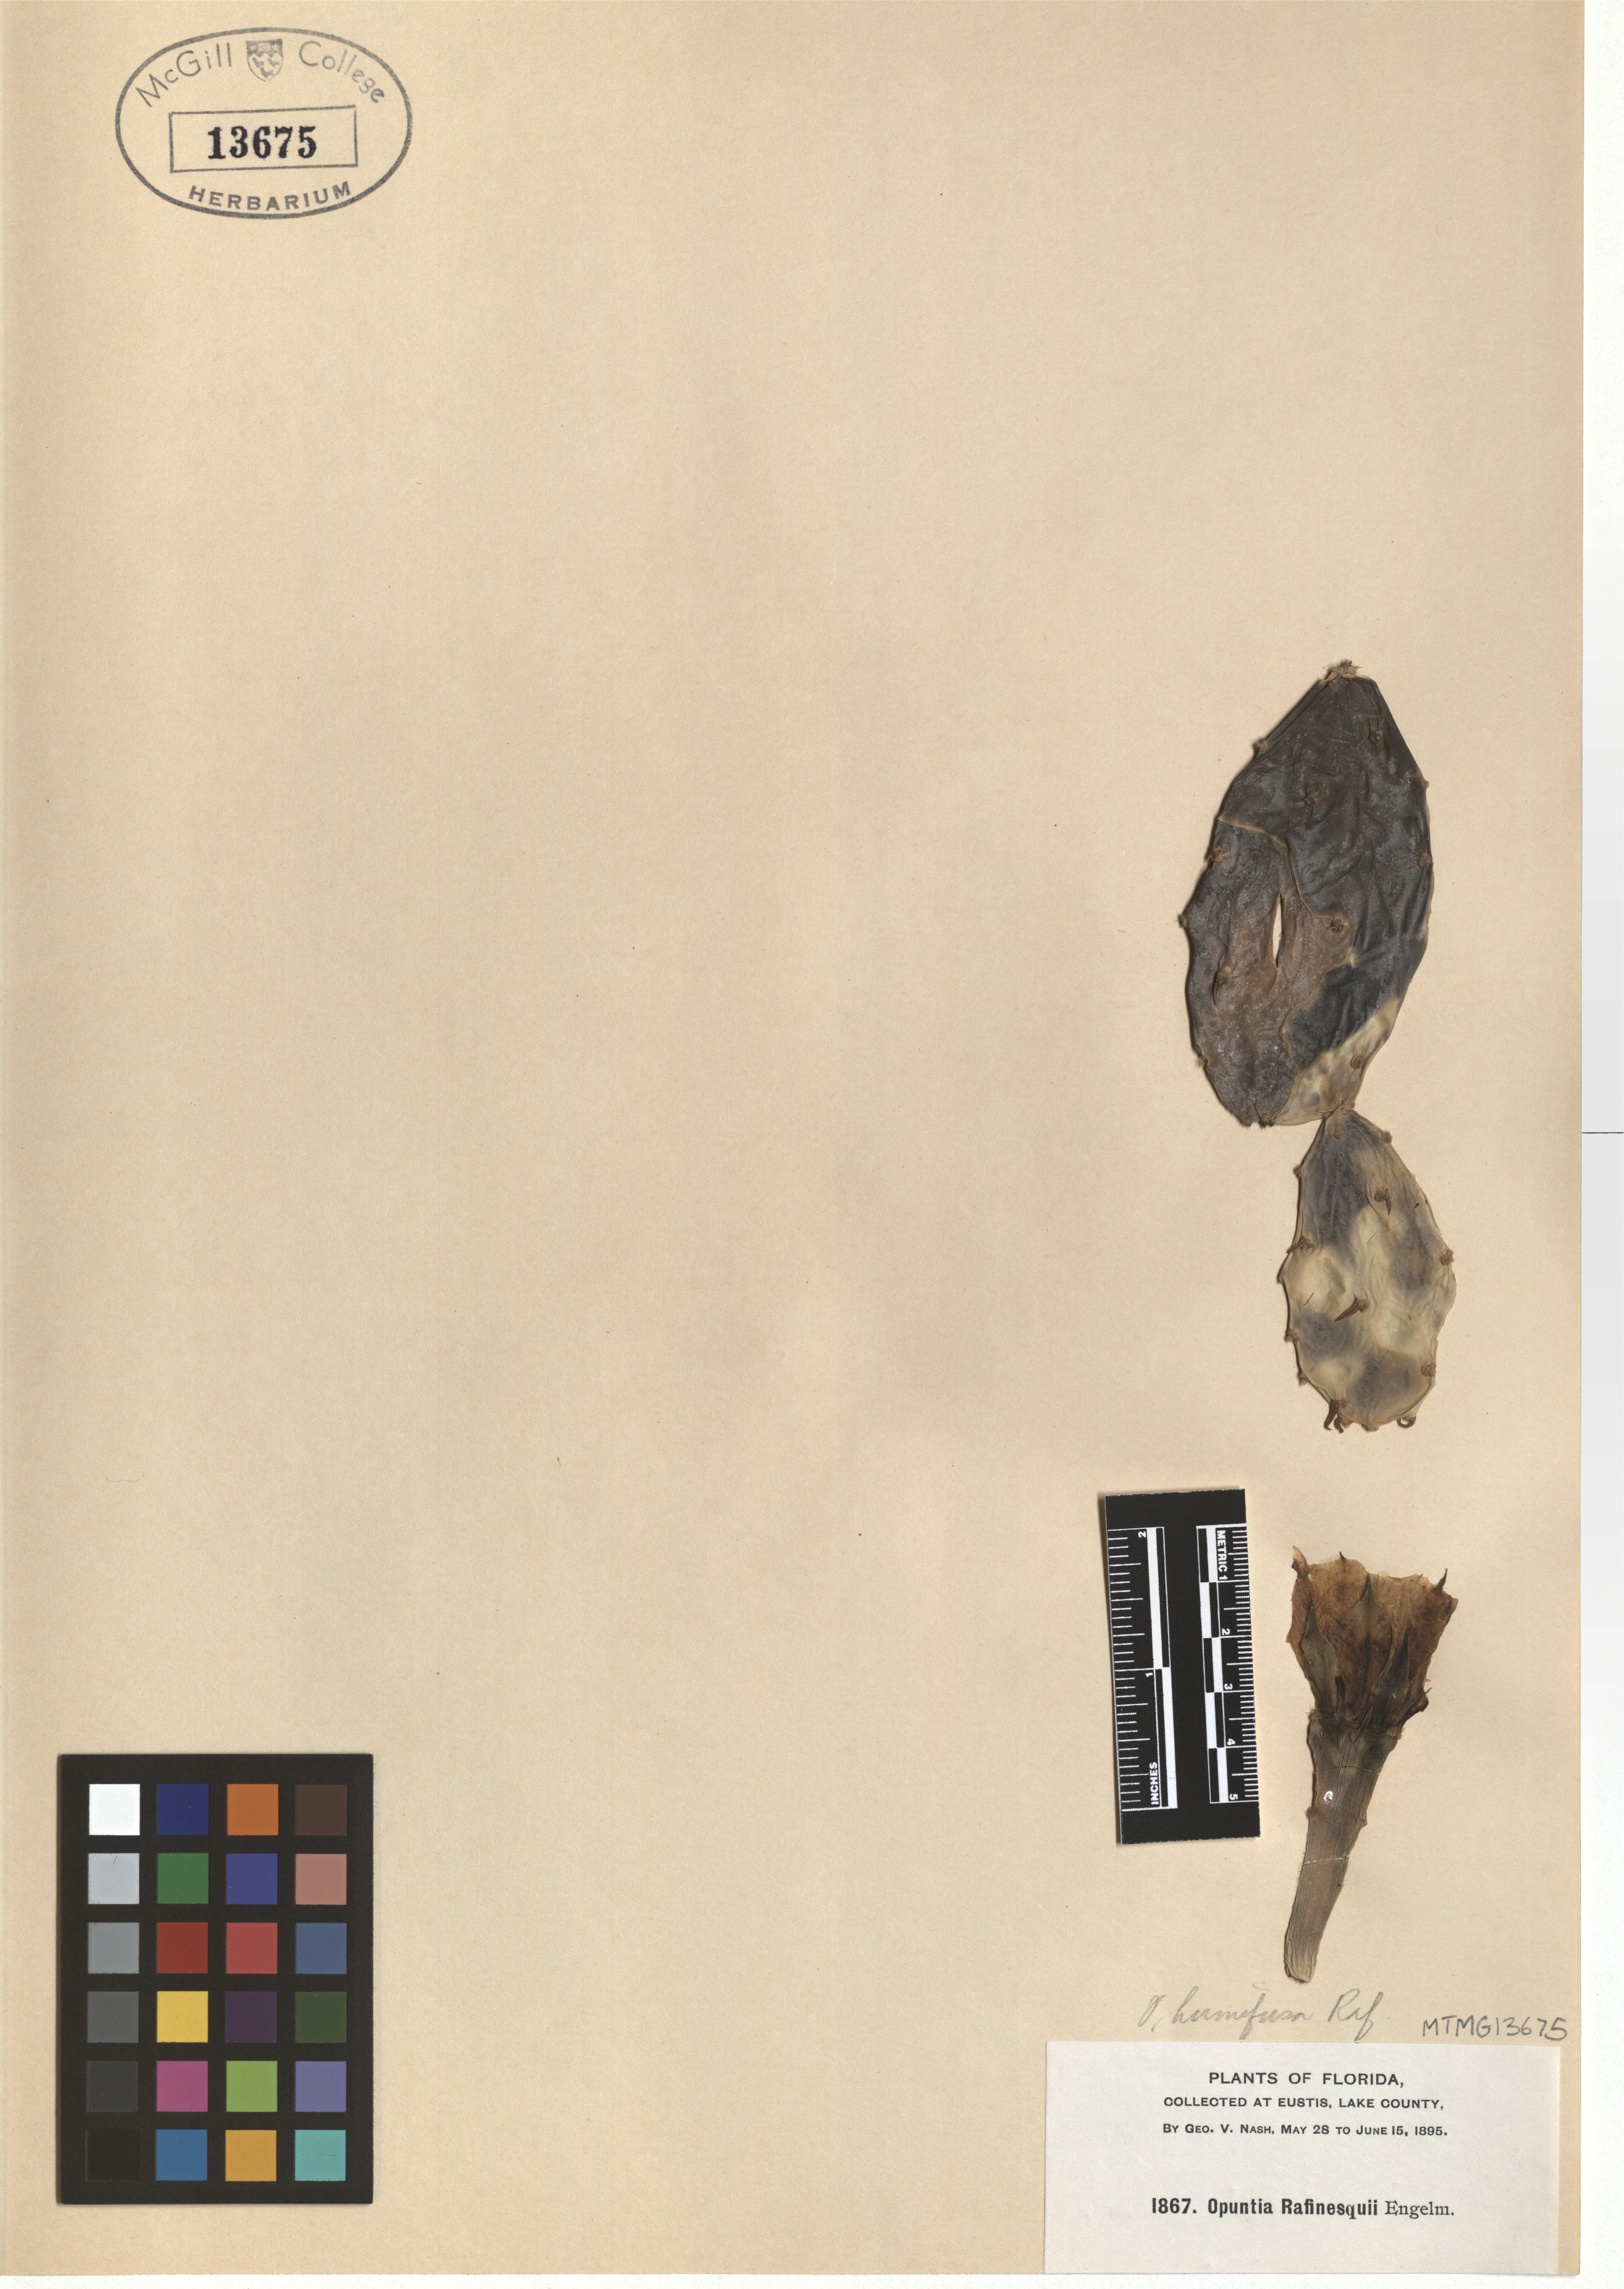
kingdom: Plantae
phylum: Tracheophyta
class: Magnoliopsida
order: Caryophyllales
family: Cactaceae
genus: Opuntia
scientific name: Opuntia humifusa
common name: Eastern prickly-pear
